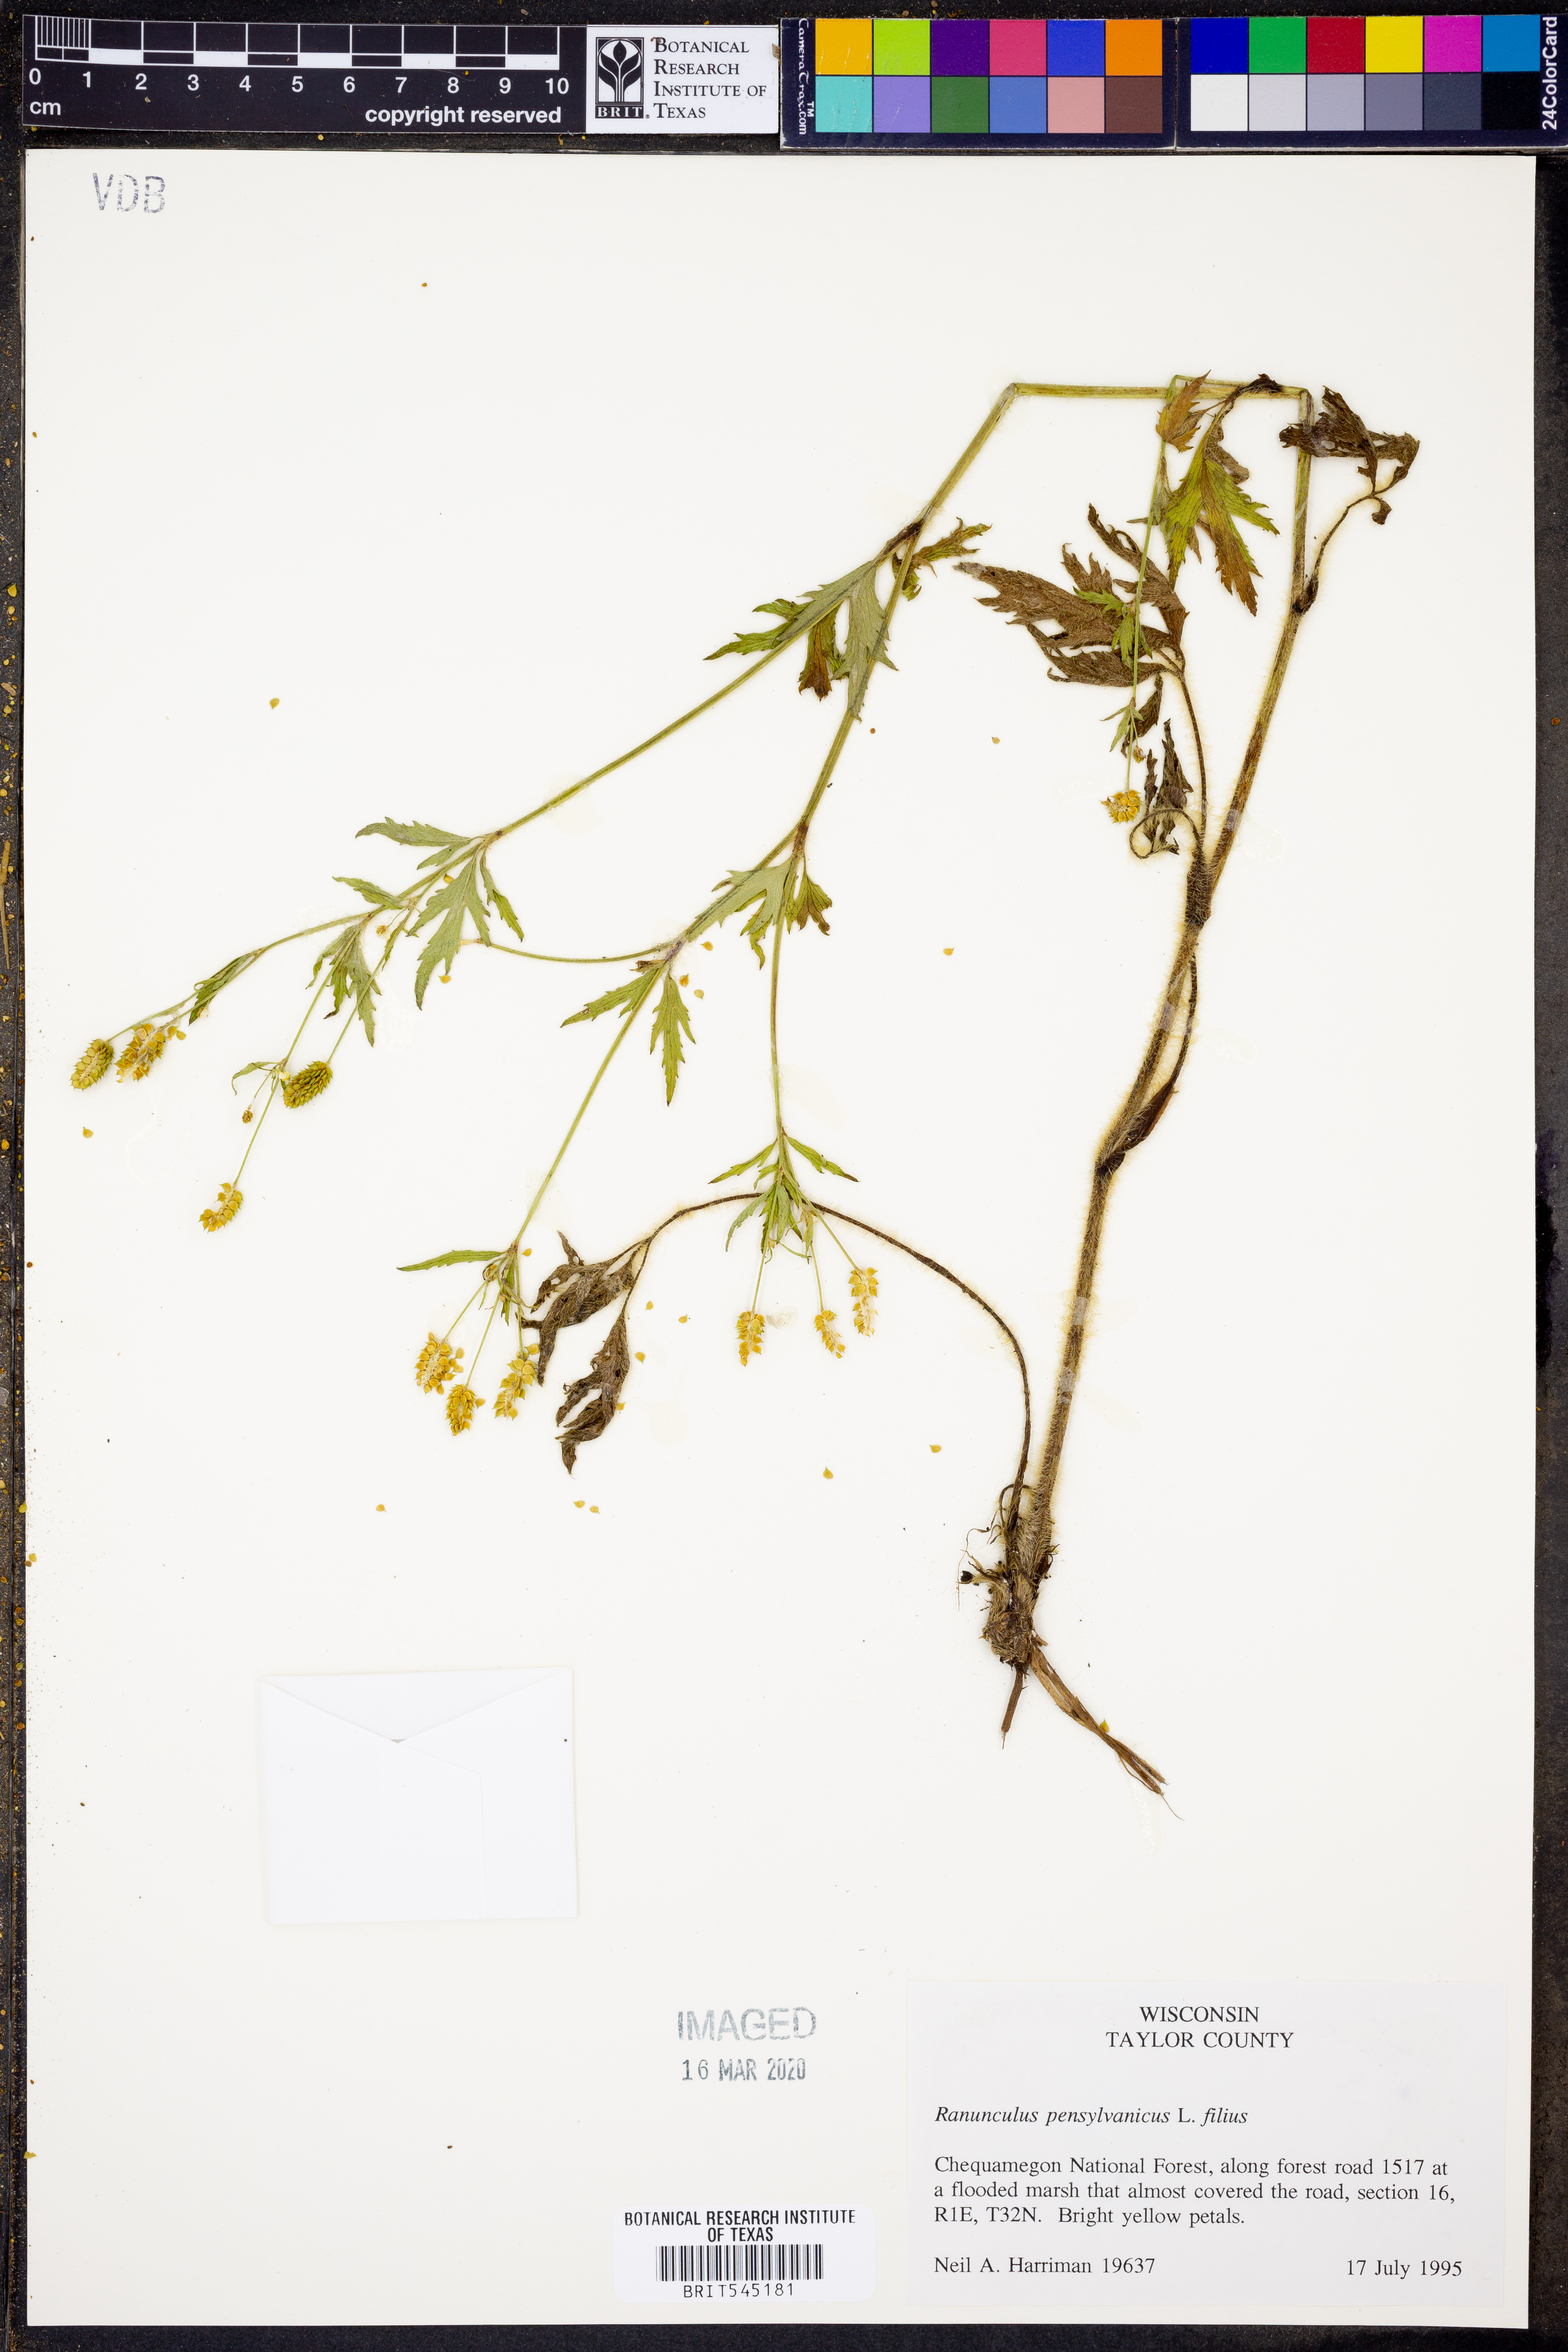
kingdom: Plantae
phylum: Tracheophyta
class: Magnoliopsida
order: Ranunculales
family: Ranunculaceae
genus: Ranunculus
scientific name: Ranunculus pensylvanicus
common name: Bristly buttercup
